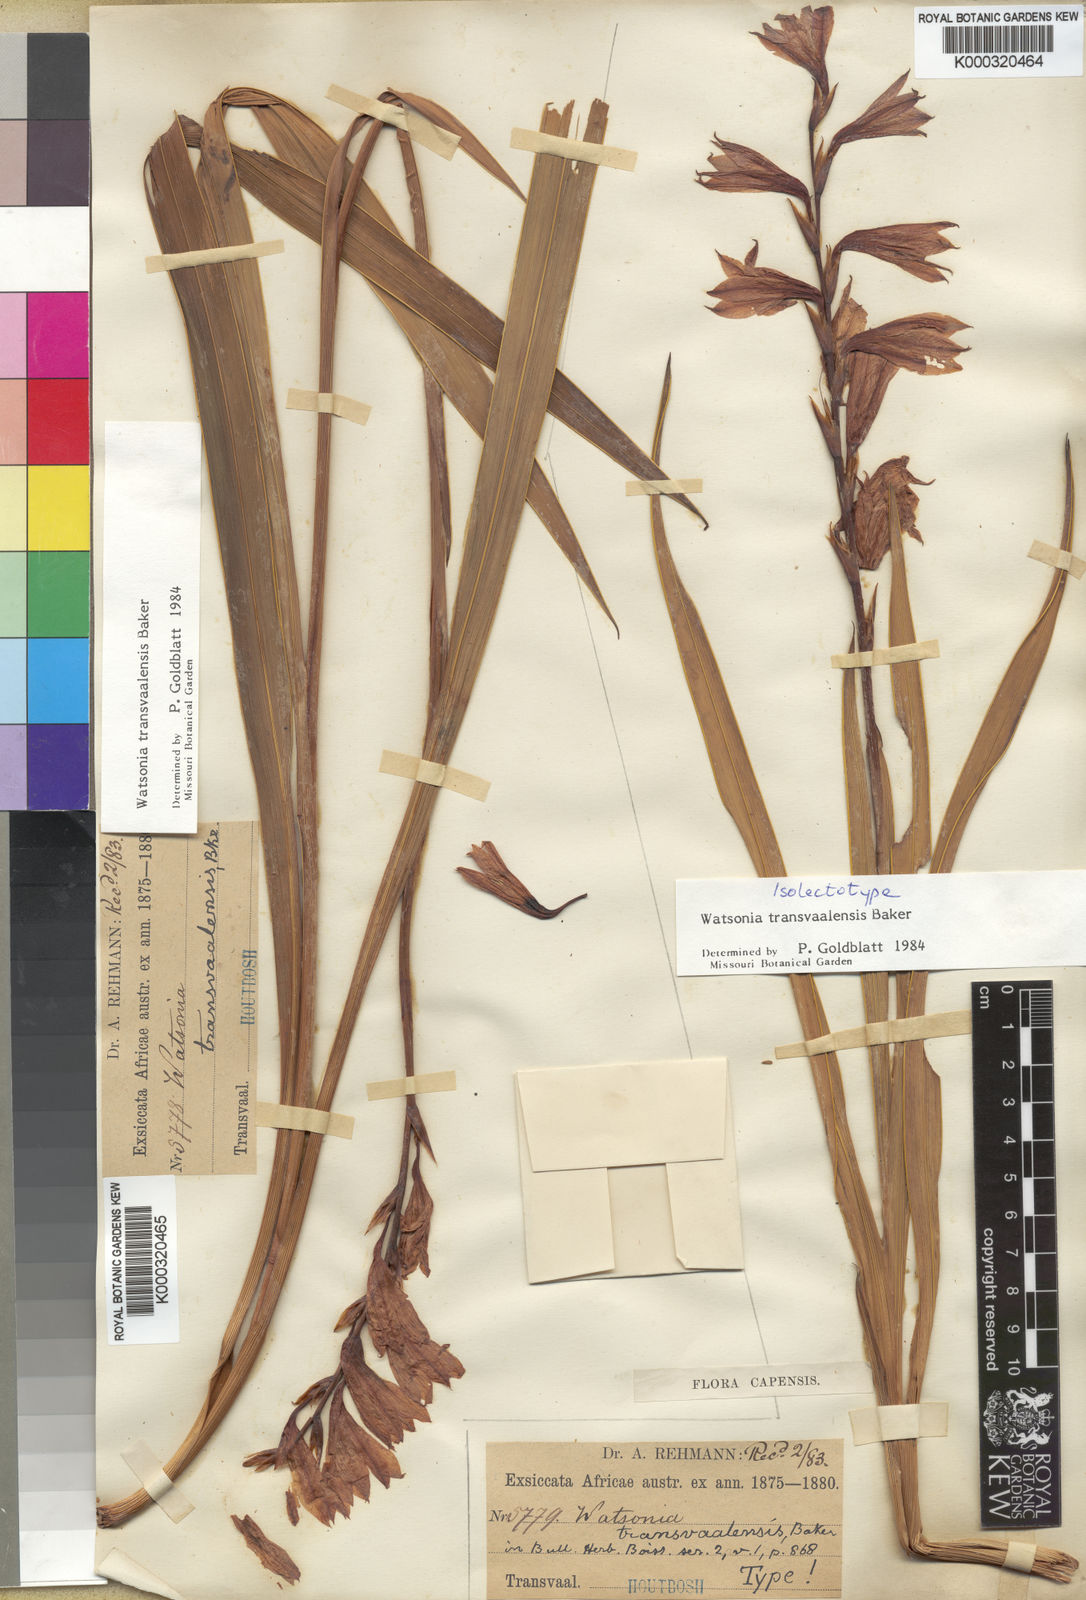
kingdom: Plantae
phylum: Tracheophyta
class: Liliopsida
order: Asparagales
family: Iridaceae
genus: Watsonia
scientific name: Watsonia transvaalensis
